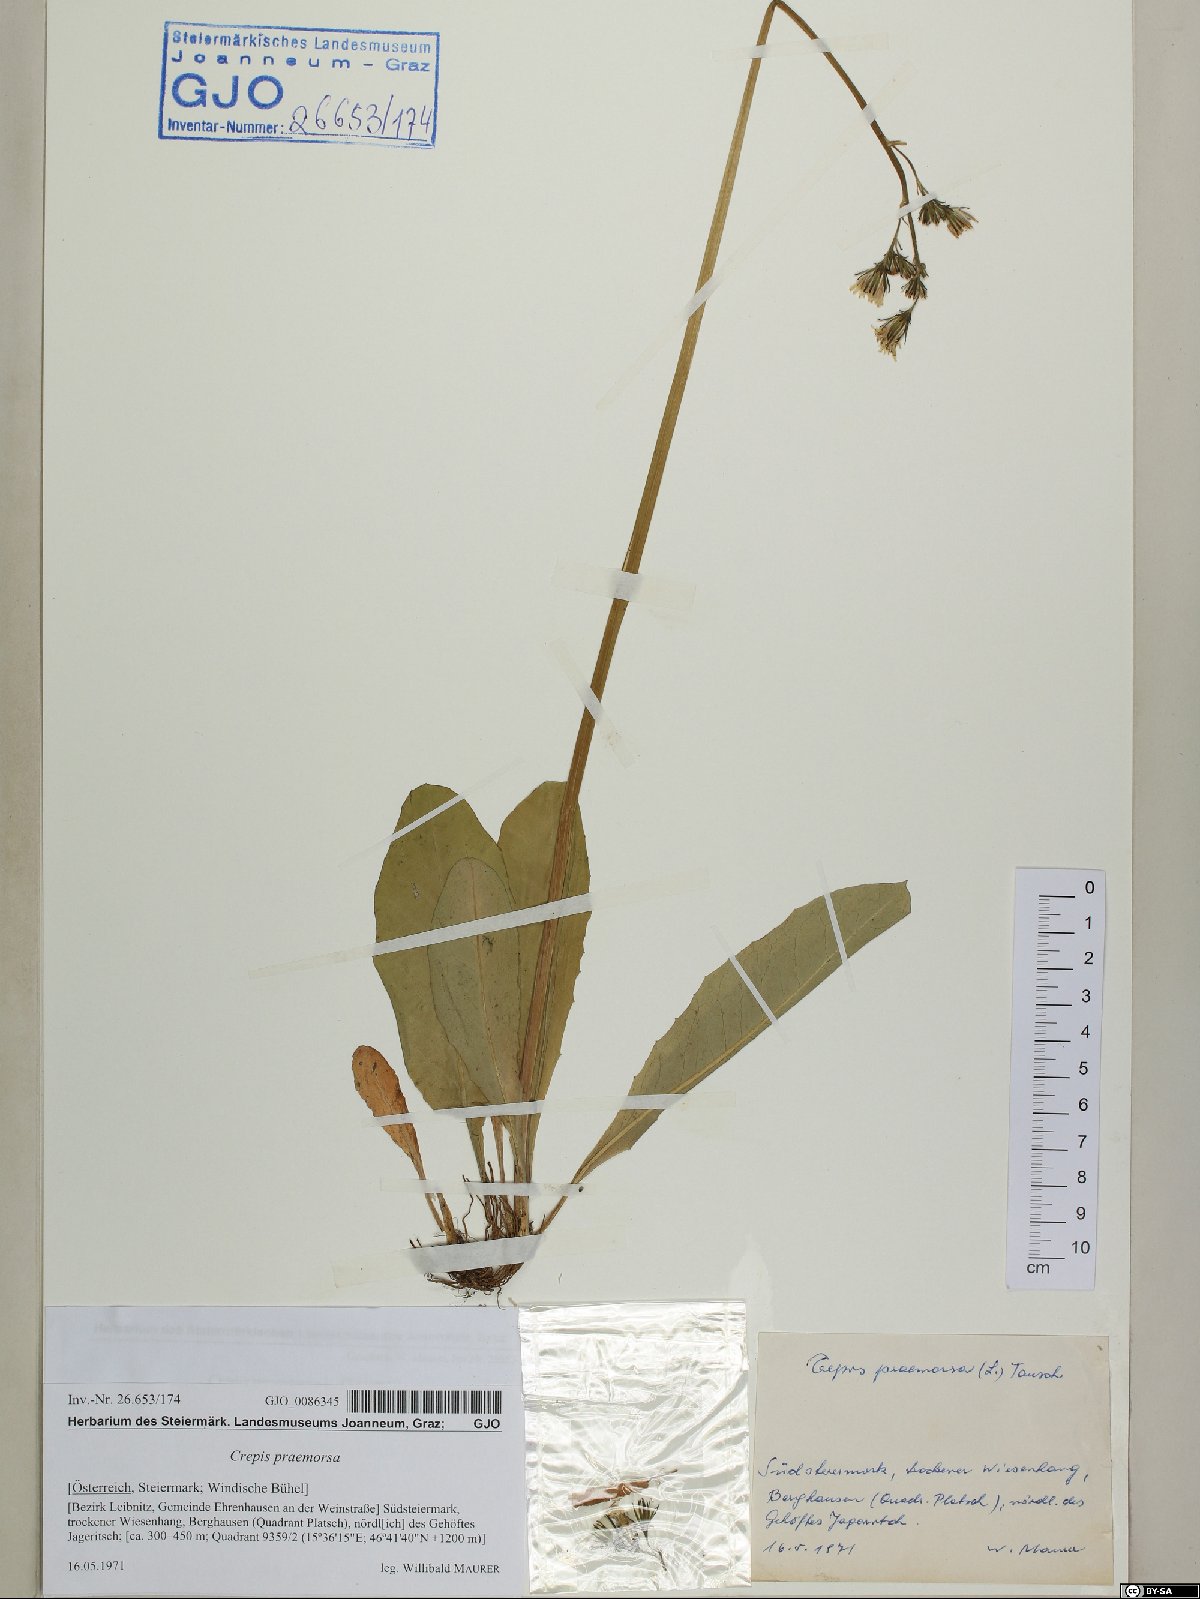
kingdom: Plantae
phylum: Tracheophyta
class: Magnoliopsida
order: Asterales
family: Asteraceae
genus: Crepis
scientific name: Crepis praemorsa
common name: Leafless hawk's-beard
